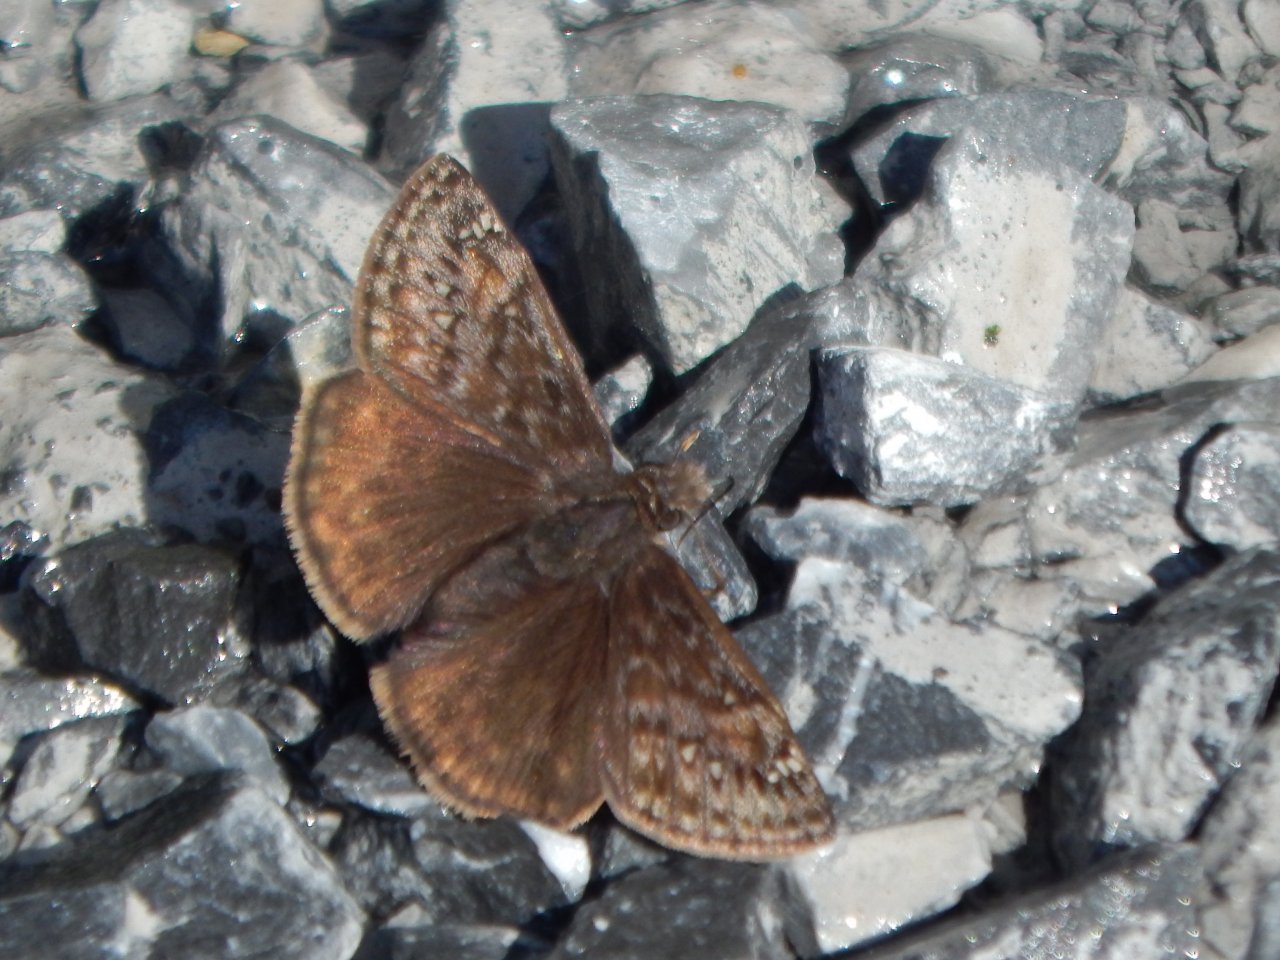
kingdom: Animalia
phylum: Arthropoda
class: Insecta
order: Lepidoptera
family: Hesperiidae
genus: Gesta
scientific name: Gesta
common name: Wild Indigo Duskywing
